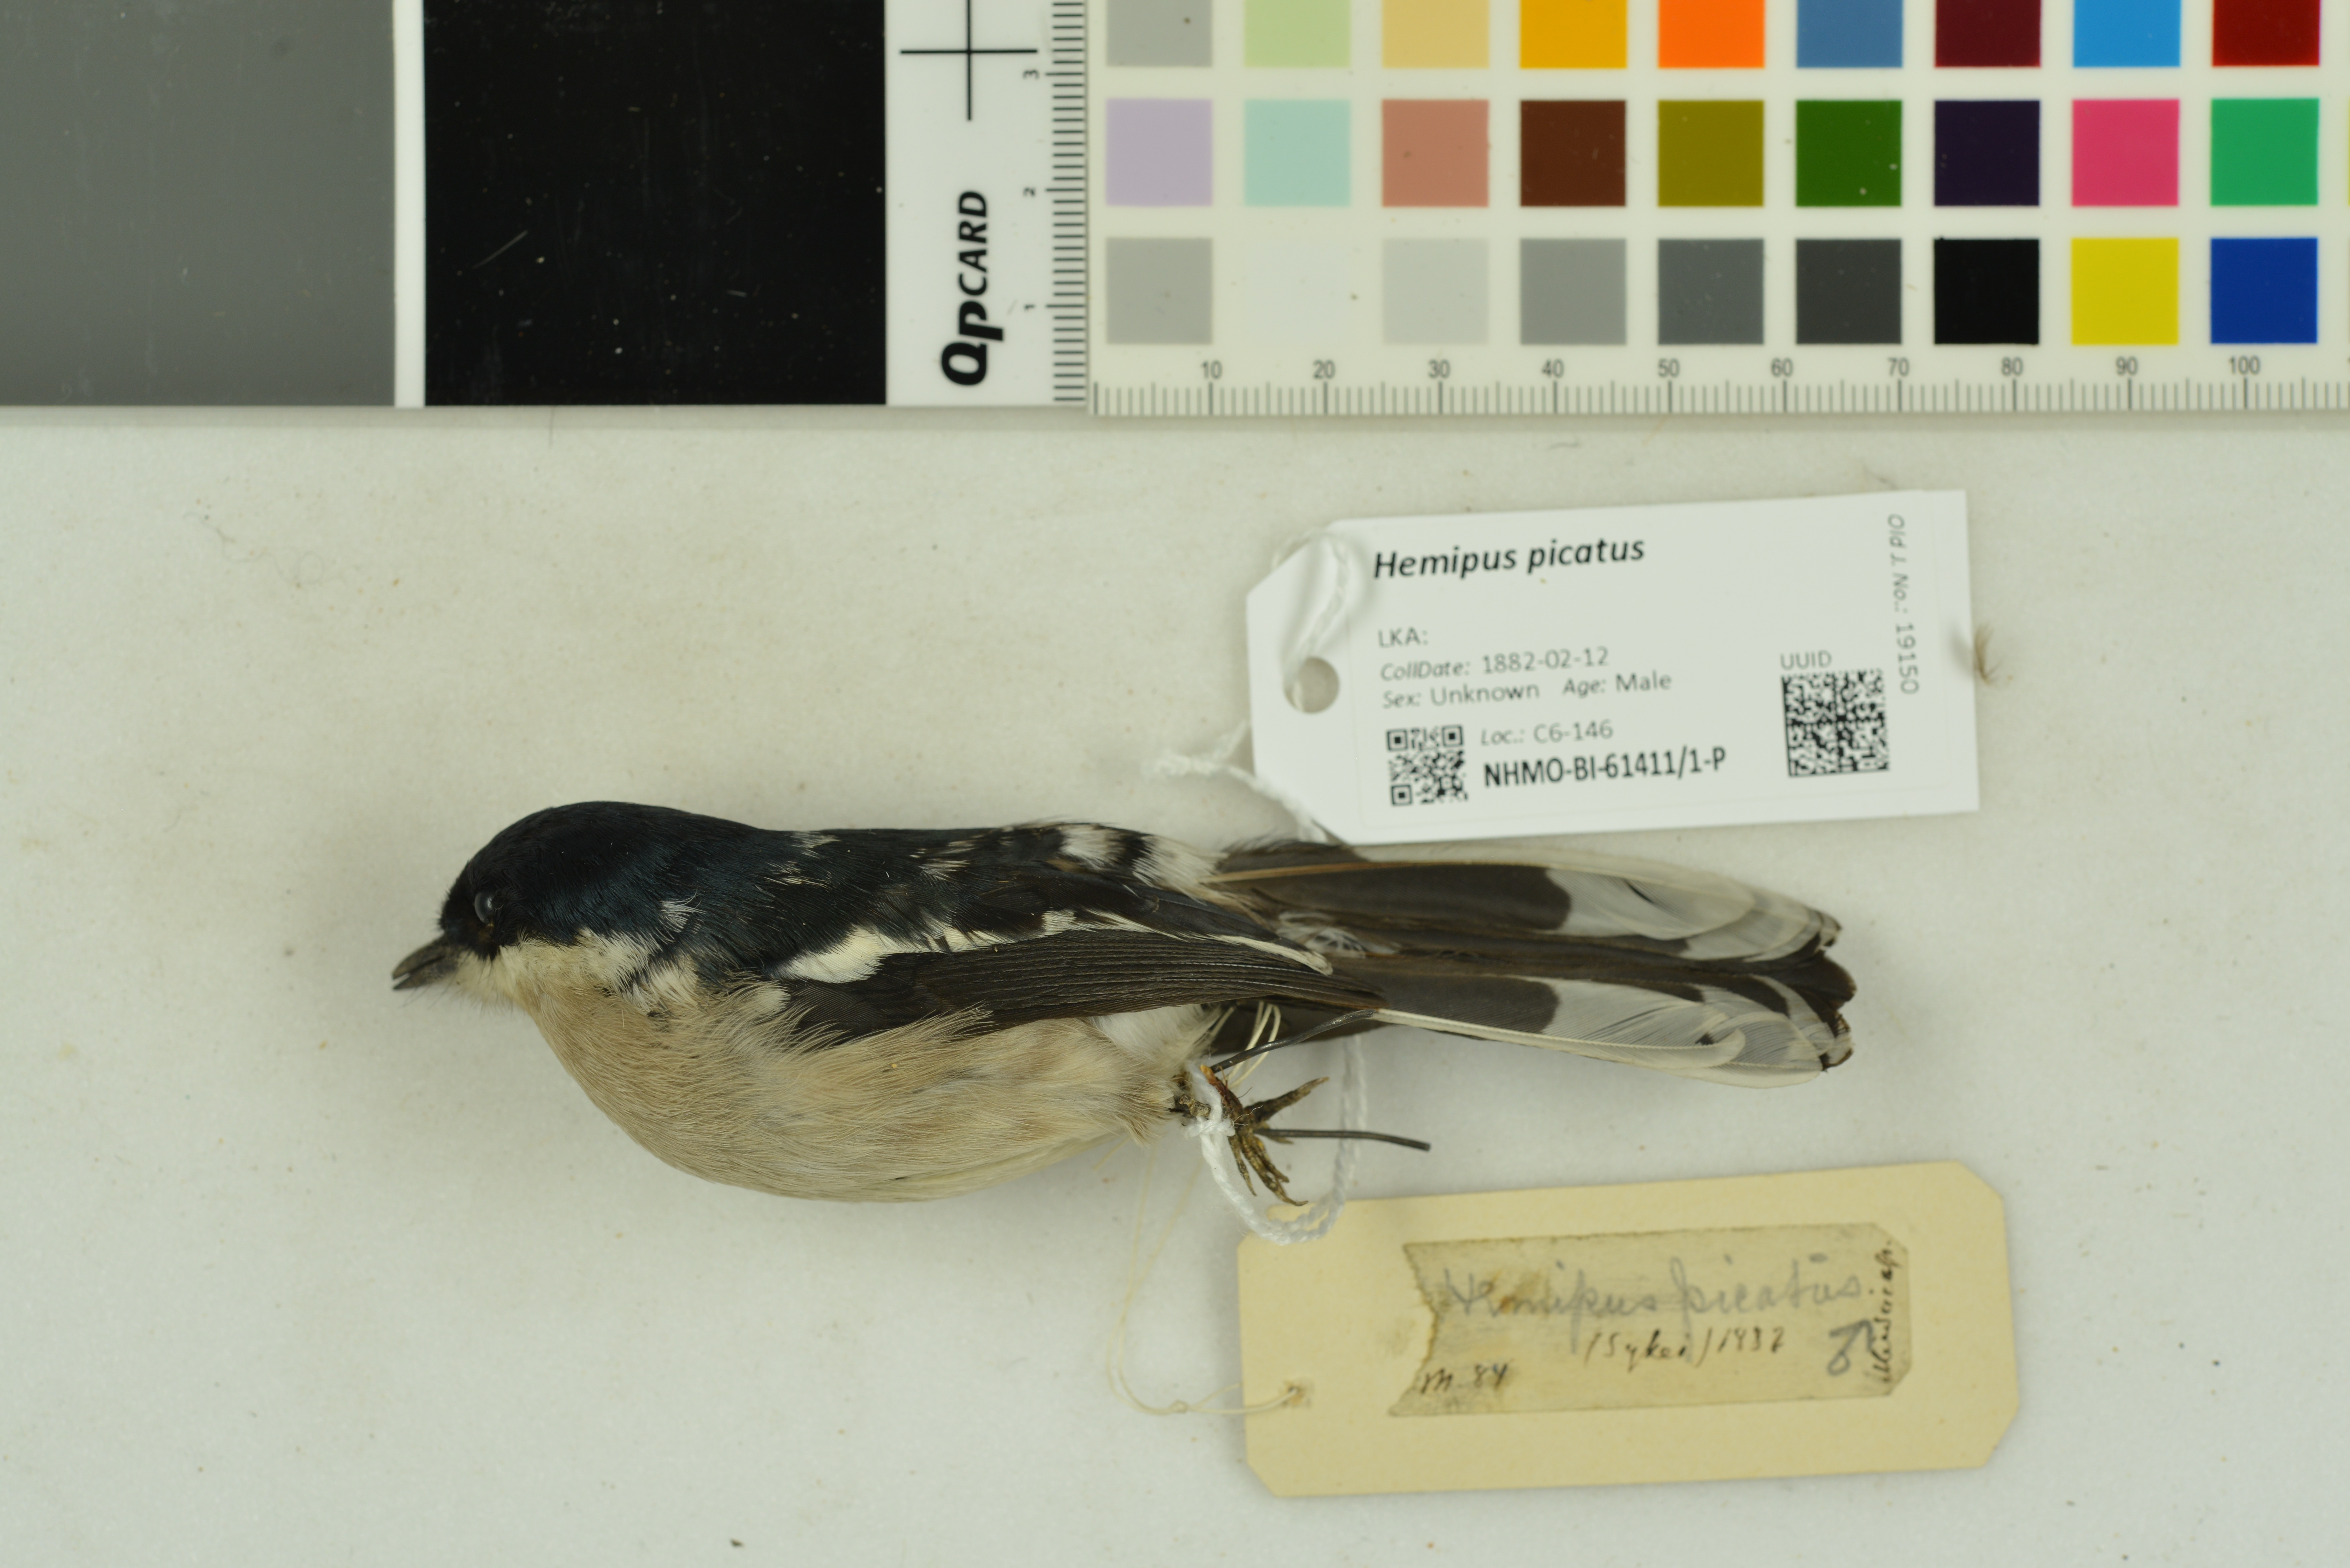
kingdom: Animalia
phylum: Chordata
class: Aves
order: Passeriformes
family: Tephrodornithidae
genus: Hemipus
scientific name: Hemipus picatus
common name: Bar-winged flycatcher-shrike
